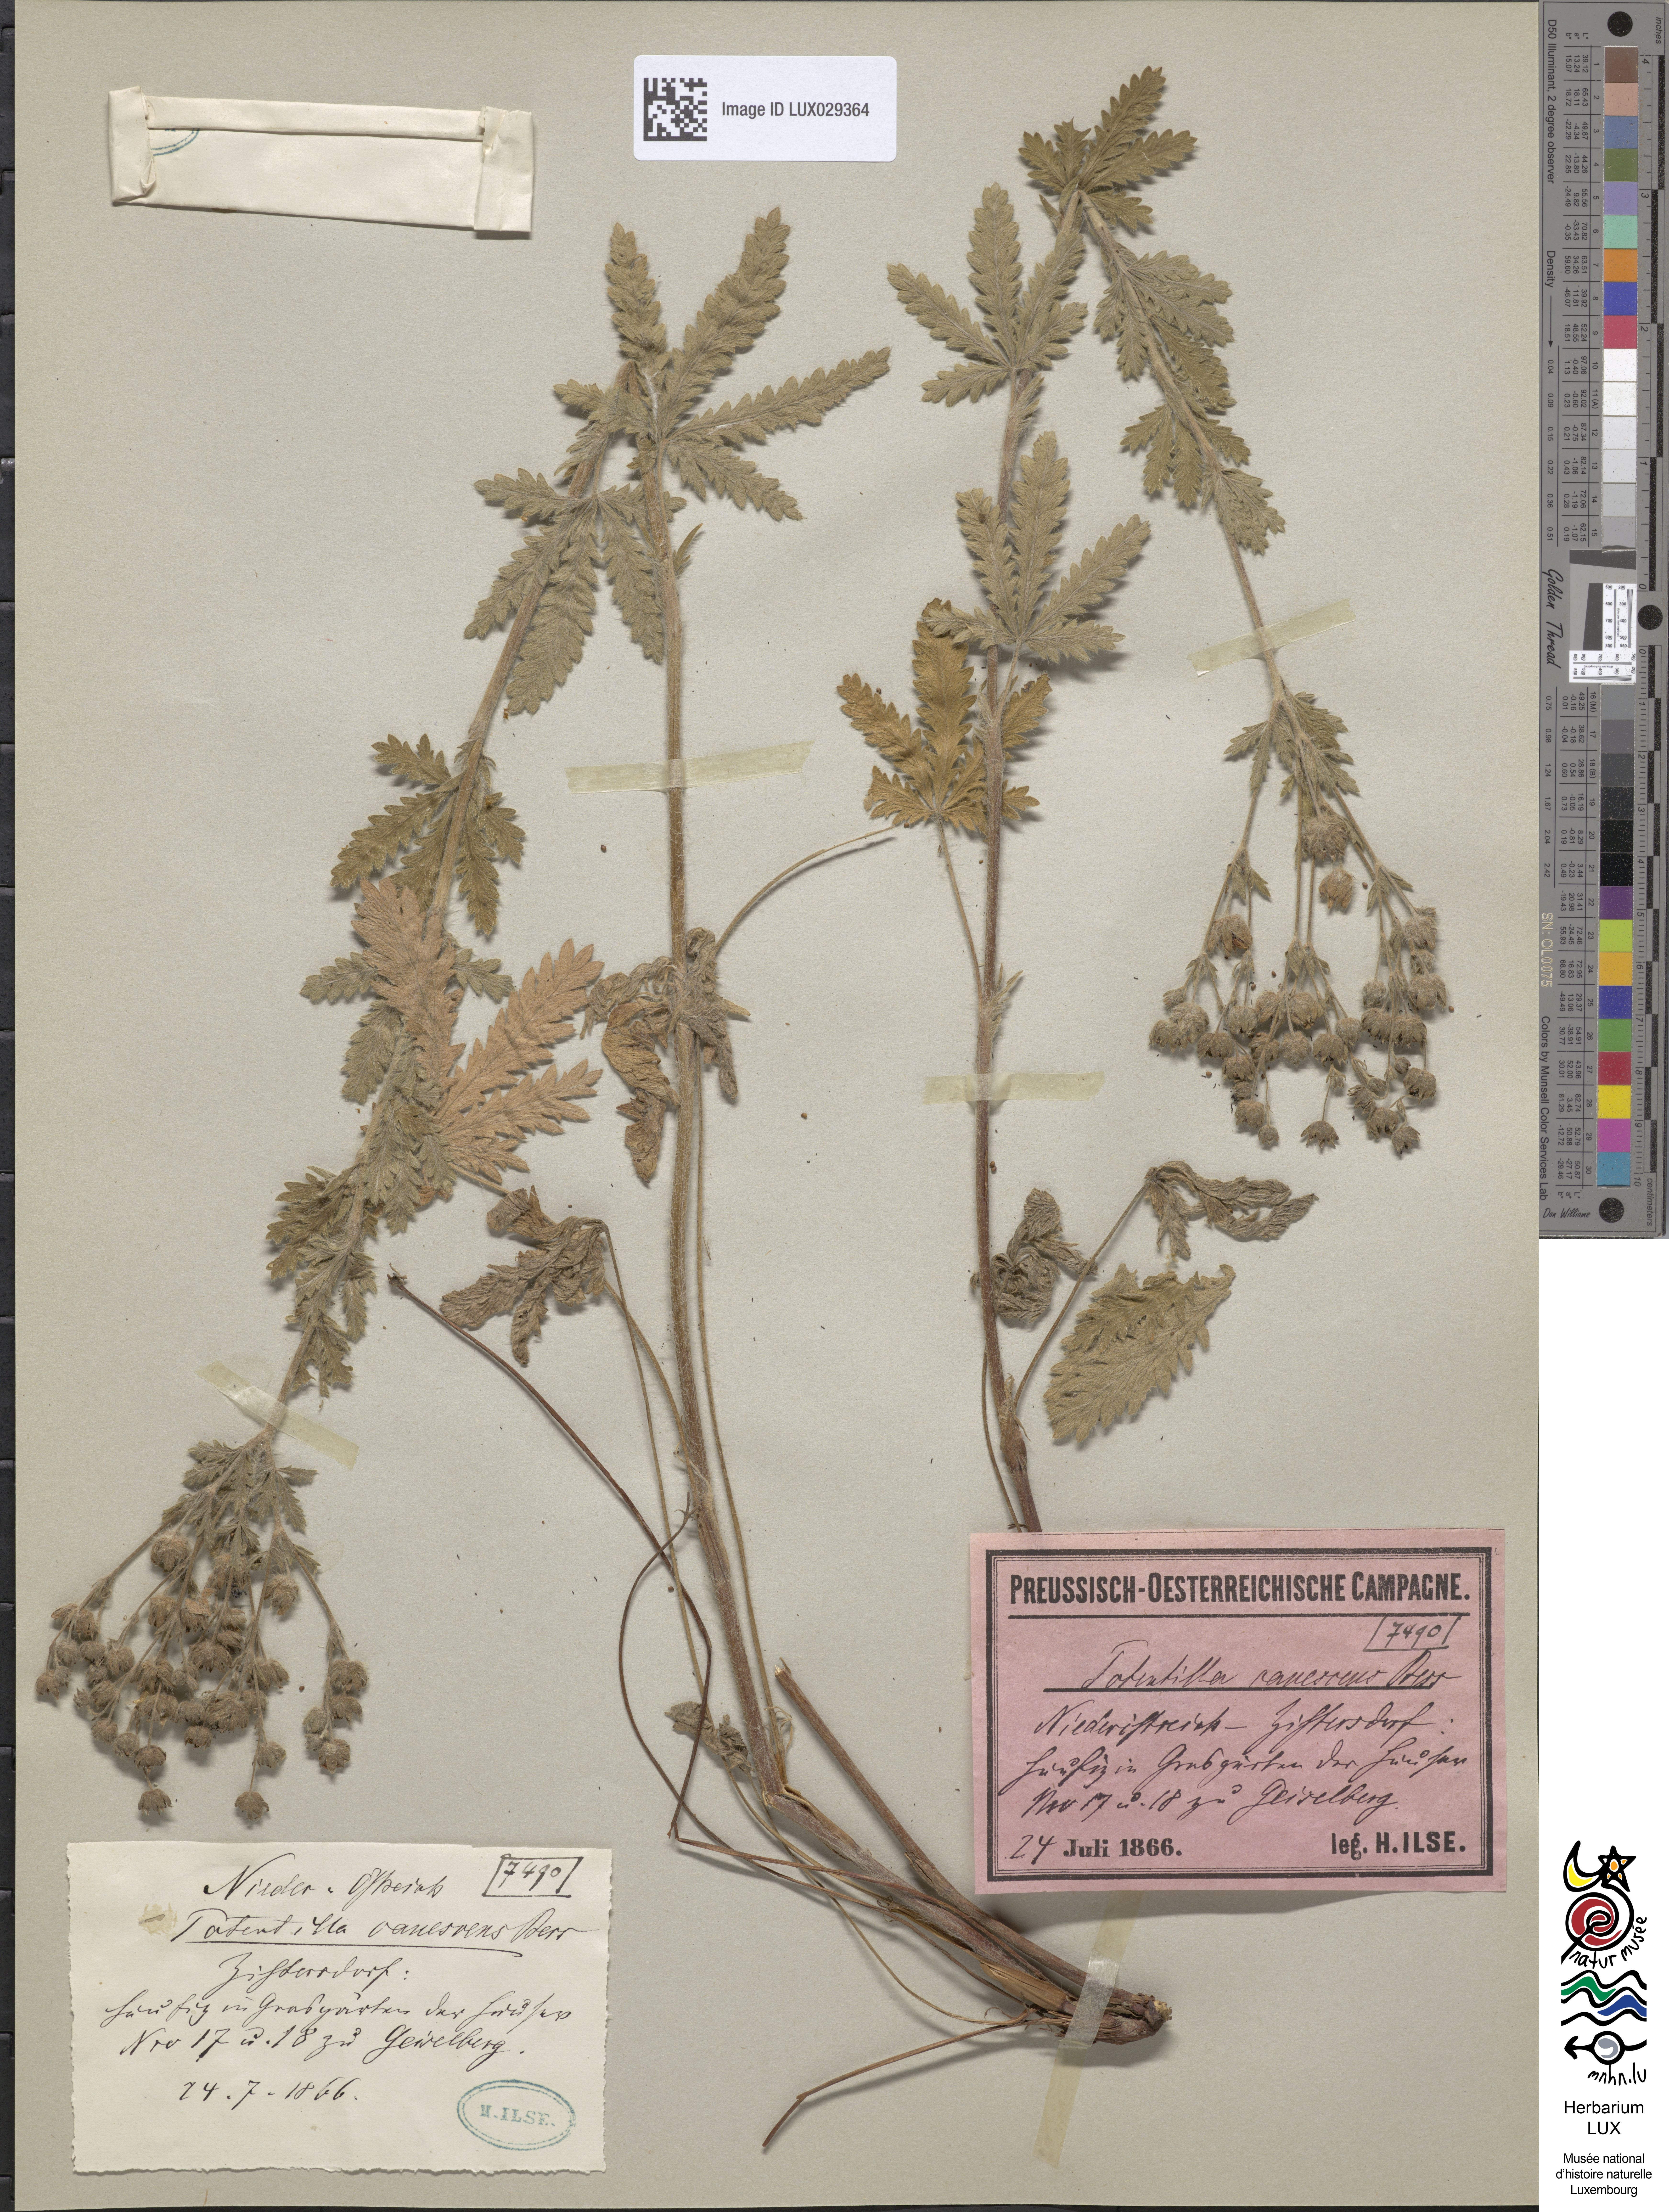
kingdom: Plantae
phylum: Tracheophyta
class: Magnoliopsida
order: Rosales
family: Rosaceae
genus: Potentilla
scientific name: Potentilla inclinata
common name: Grey cinquefoil
